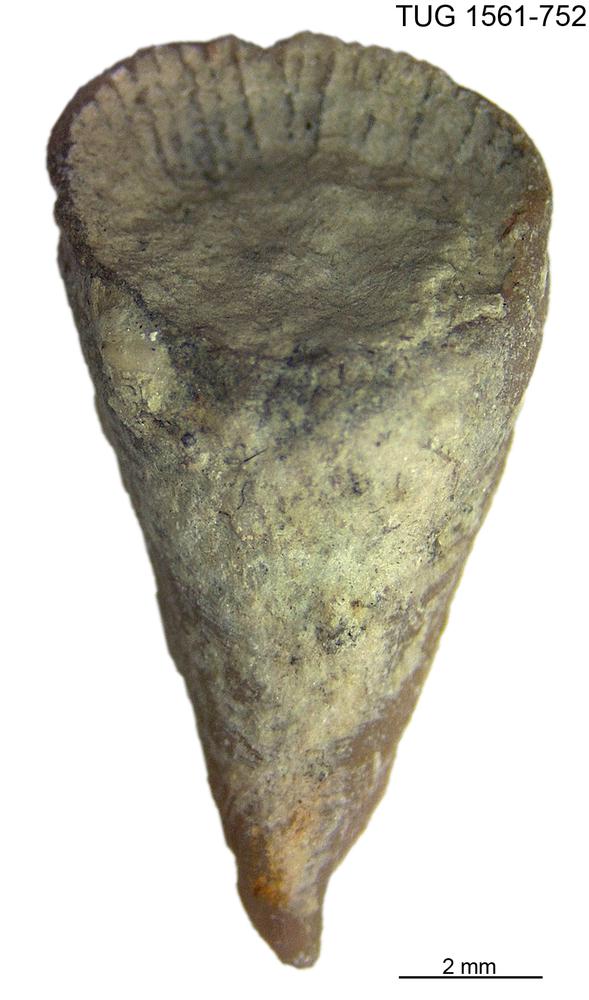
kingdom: Animalia
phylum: Cnidaria
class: Anthozoa
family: Lykophyllidae
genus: Holophragma
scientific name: Holophragma calceoloides
